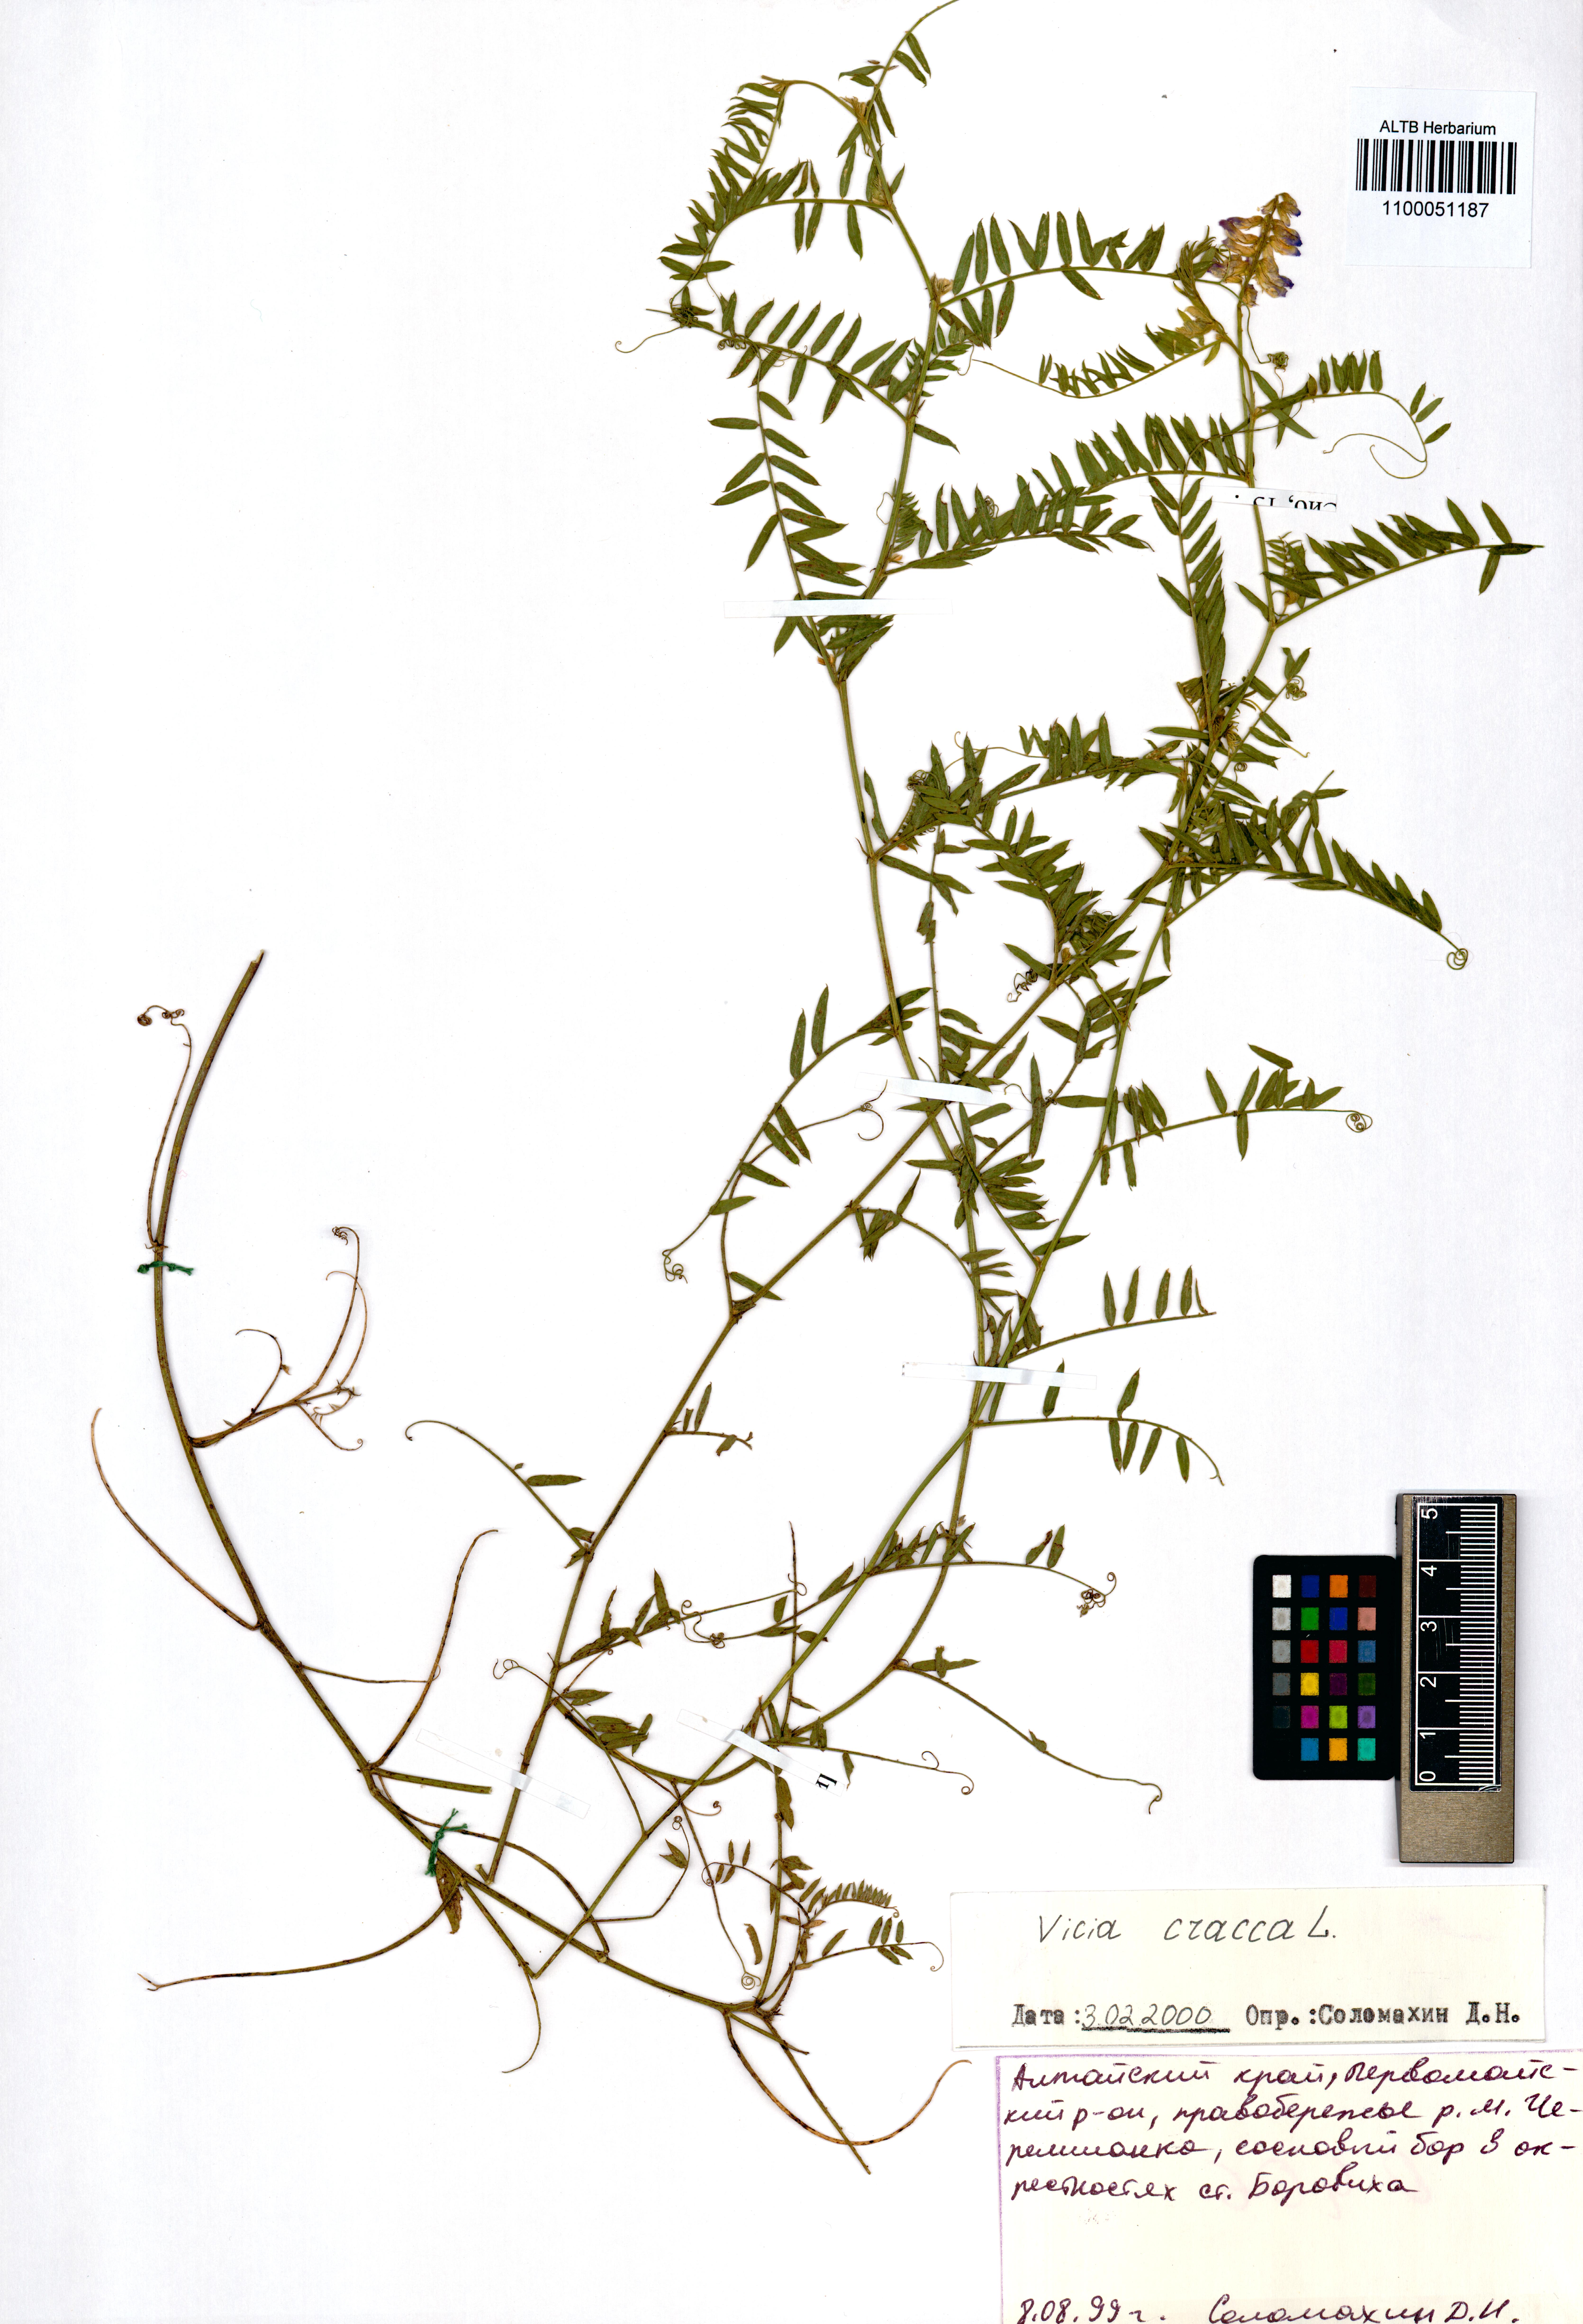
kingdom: Plantae
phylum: Tracheophyta
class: Magnoliopsida
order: Fabales
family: Fabaceae
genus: Vicia
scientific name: Vicia cracca
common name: Bird vetch
